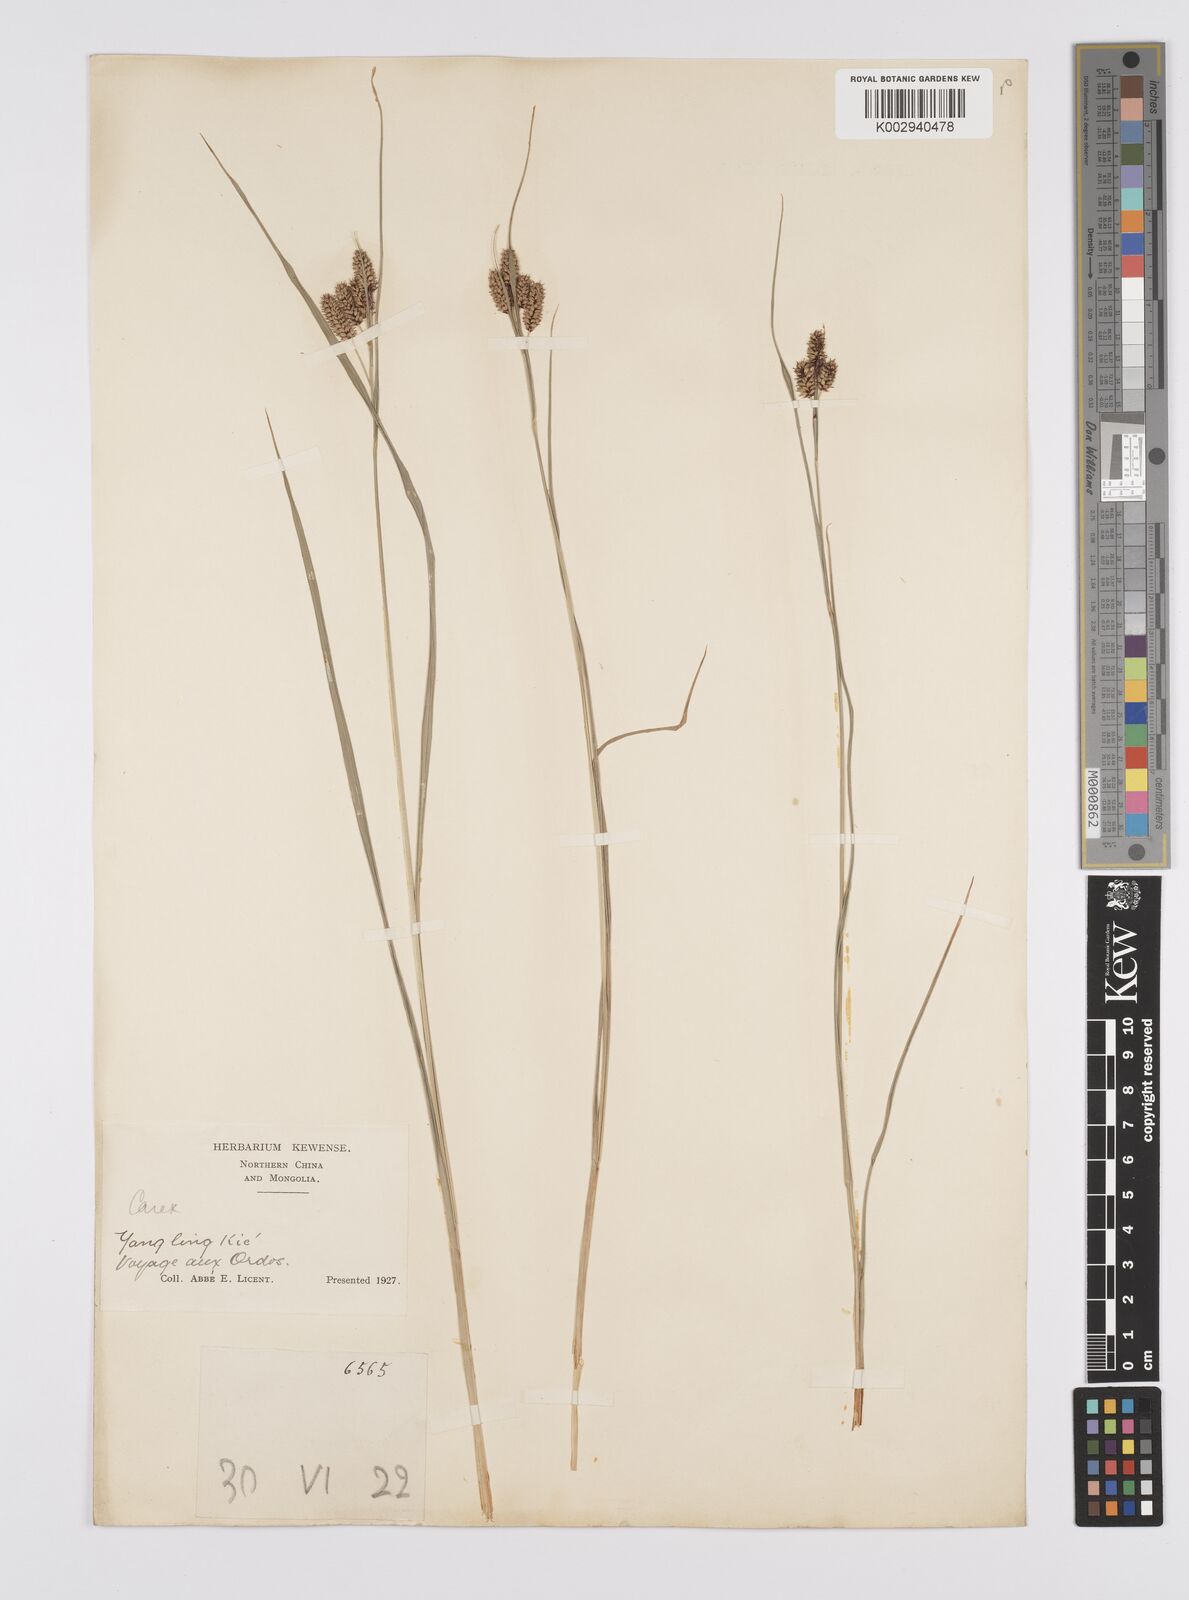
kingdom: Plantae
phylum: Tracheophyta
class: Liliopsida
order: Poales
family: Cyperaceae
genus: Carex
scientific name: Carex hancockiana
